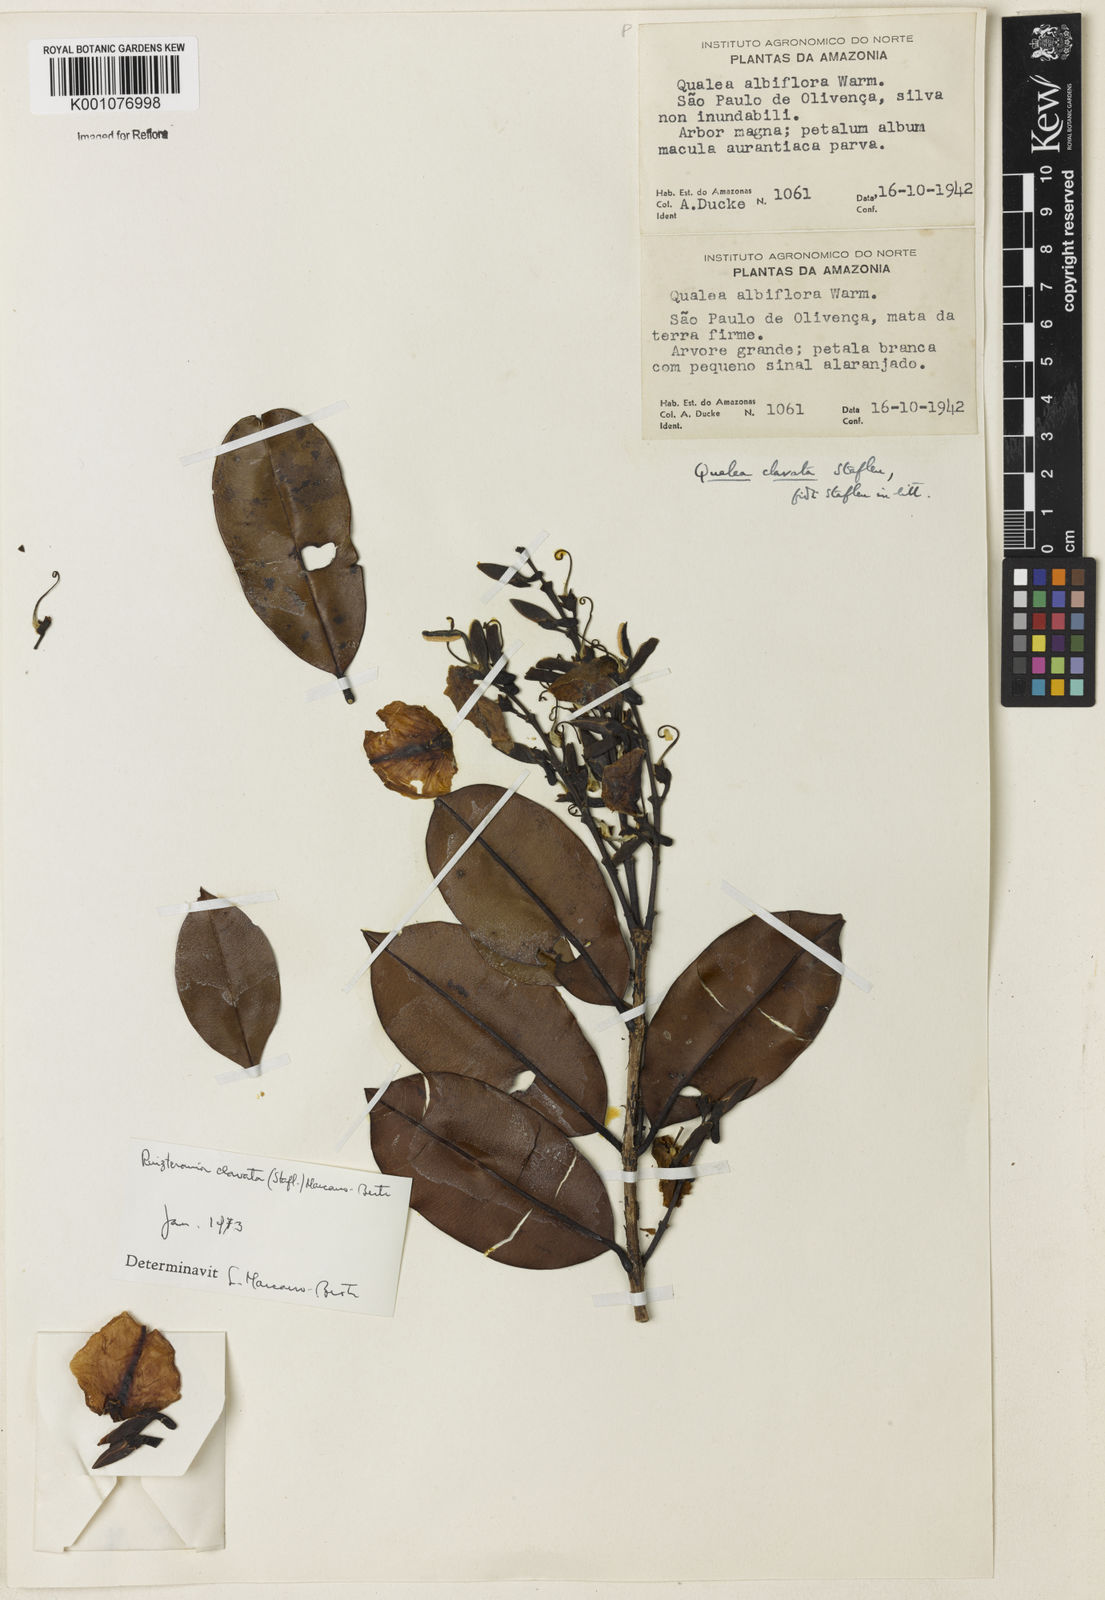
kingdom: Plantae
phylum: Tracheophyta
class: Magnoliopsida
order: Myrtales
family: Vochysiaceae
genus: Qualea
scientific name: Qualea clavata
